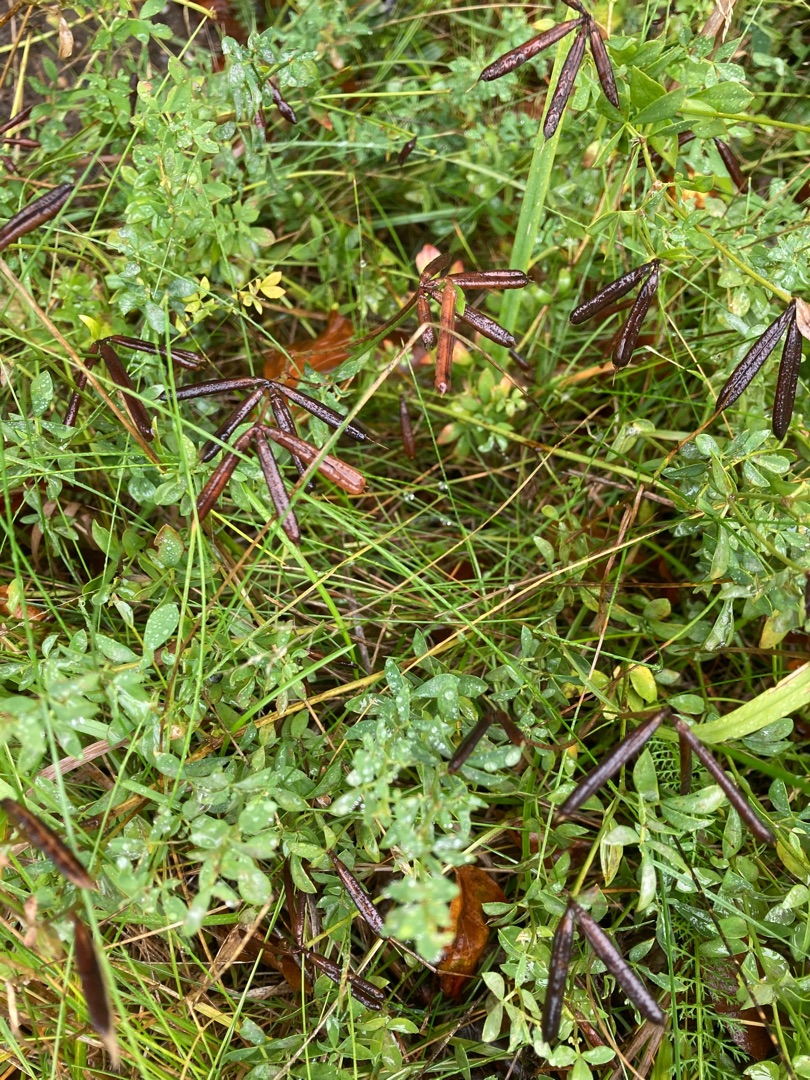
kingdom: Plantae
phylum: Tracheophyta
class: Magnoliopsida
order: Fabales
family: Fabaceae
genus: Lotus
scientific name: Lotus corniculatus
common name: Almindelig kællingetand
